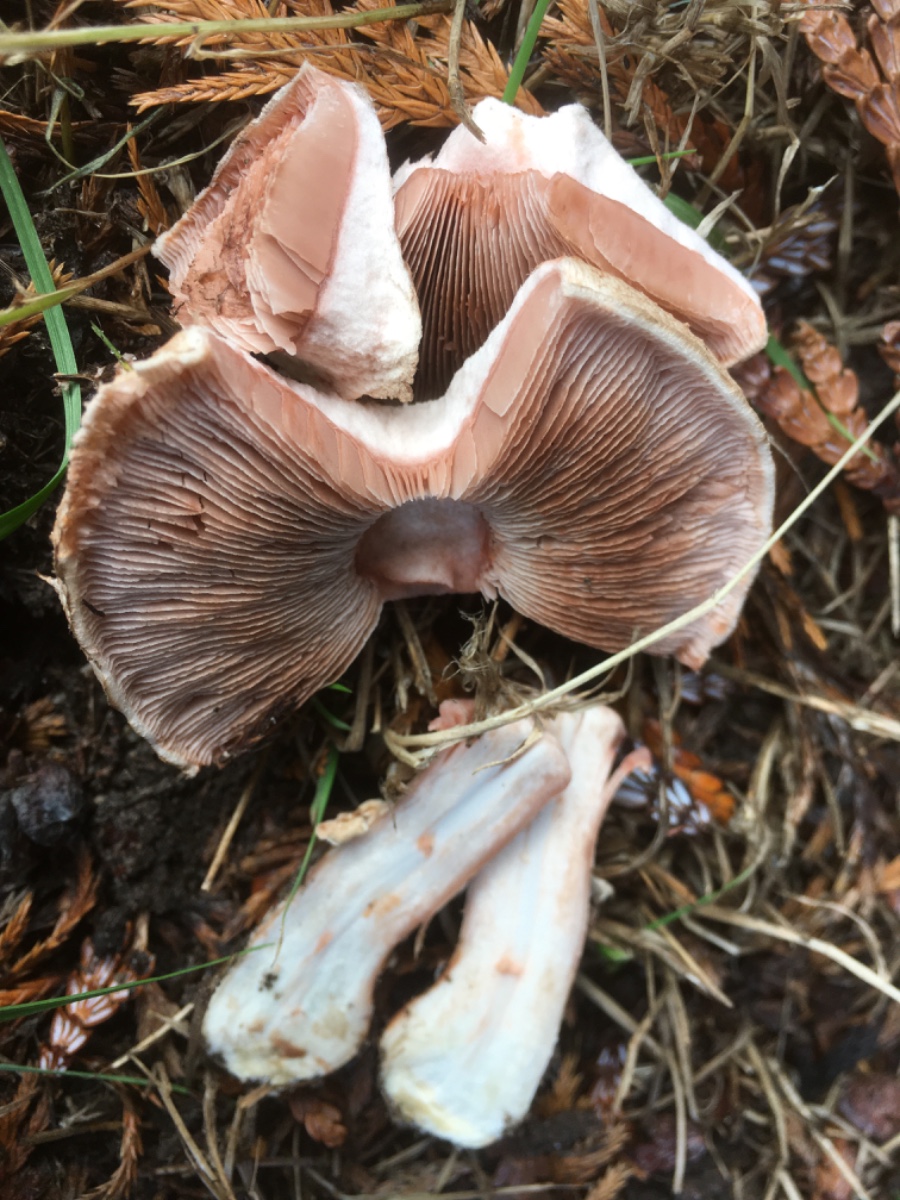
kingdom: Fungi
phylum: Basidiomycota
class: Agaricomycetes
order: Agaricales
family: Agaricaceae
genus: Agaricus
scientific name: Agaricus
